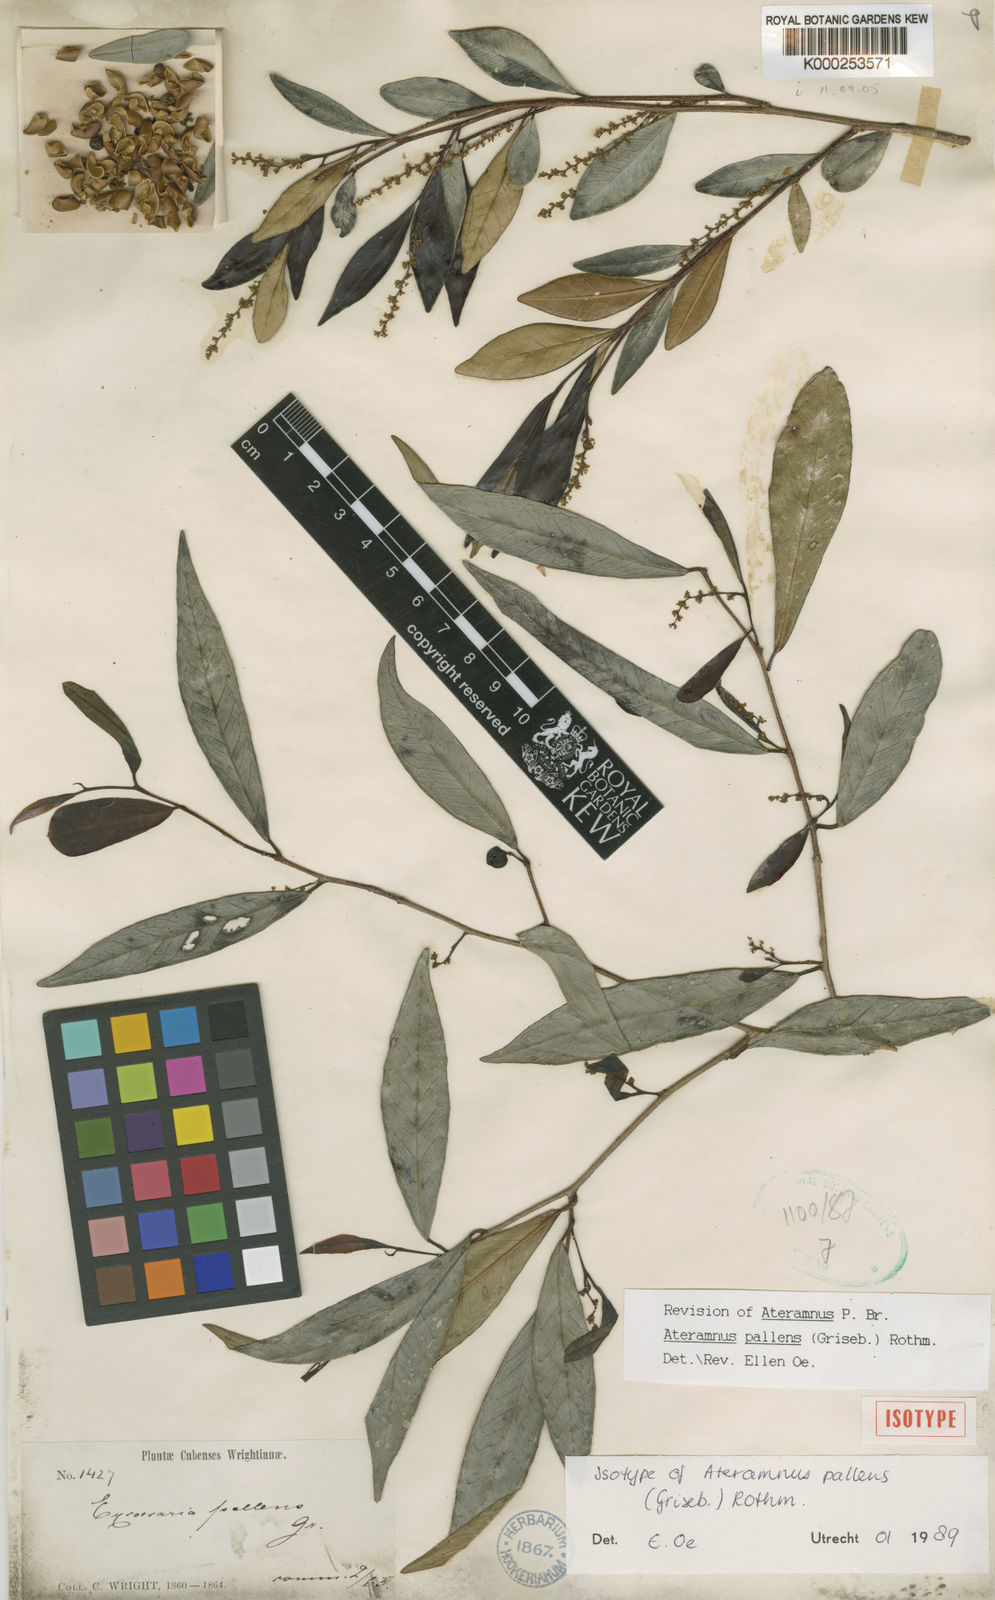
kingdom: Plantae
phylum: Tracheophyta
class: Magnoliopsida
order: Malpighiales
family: Euphorbiaceae
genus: Gymnanthes
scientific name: Gymnanthes
